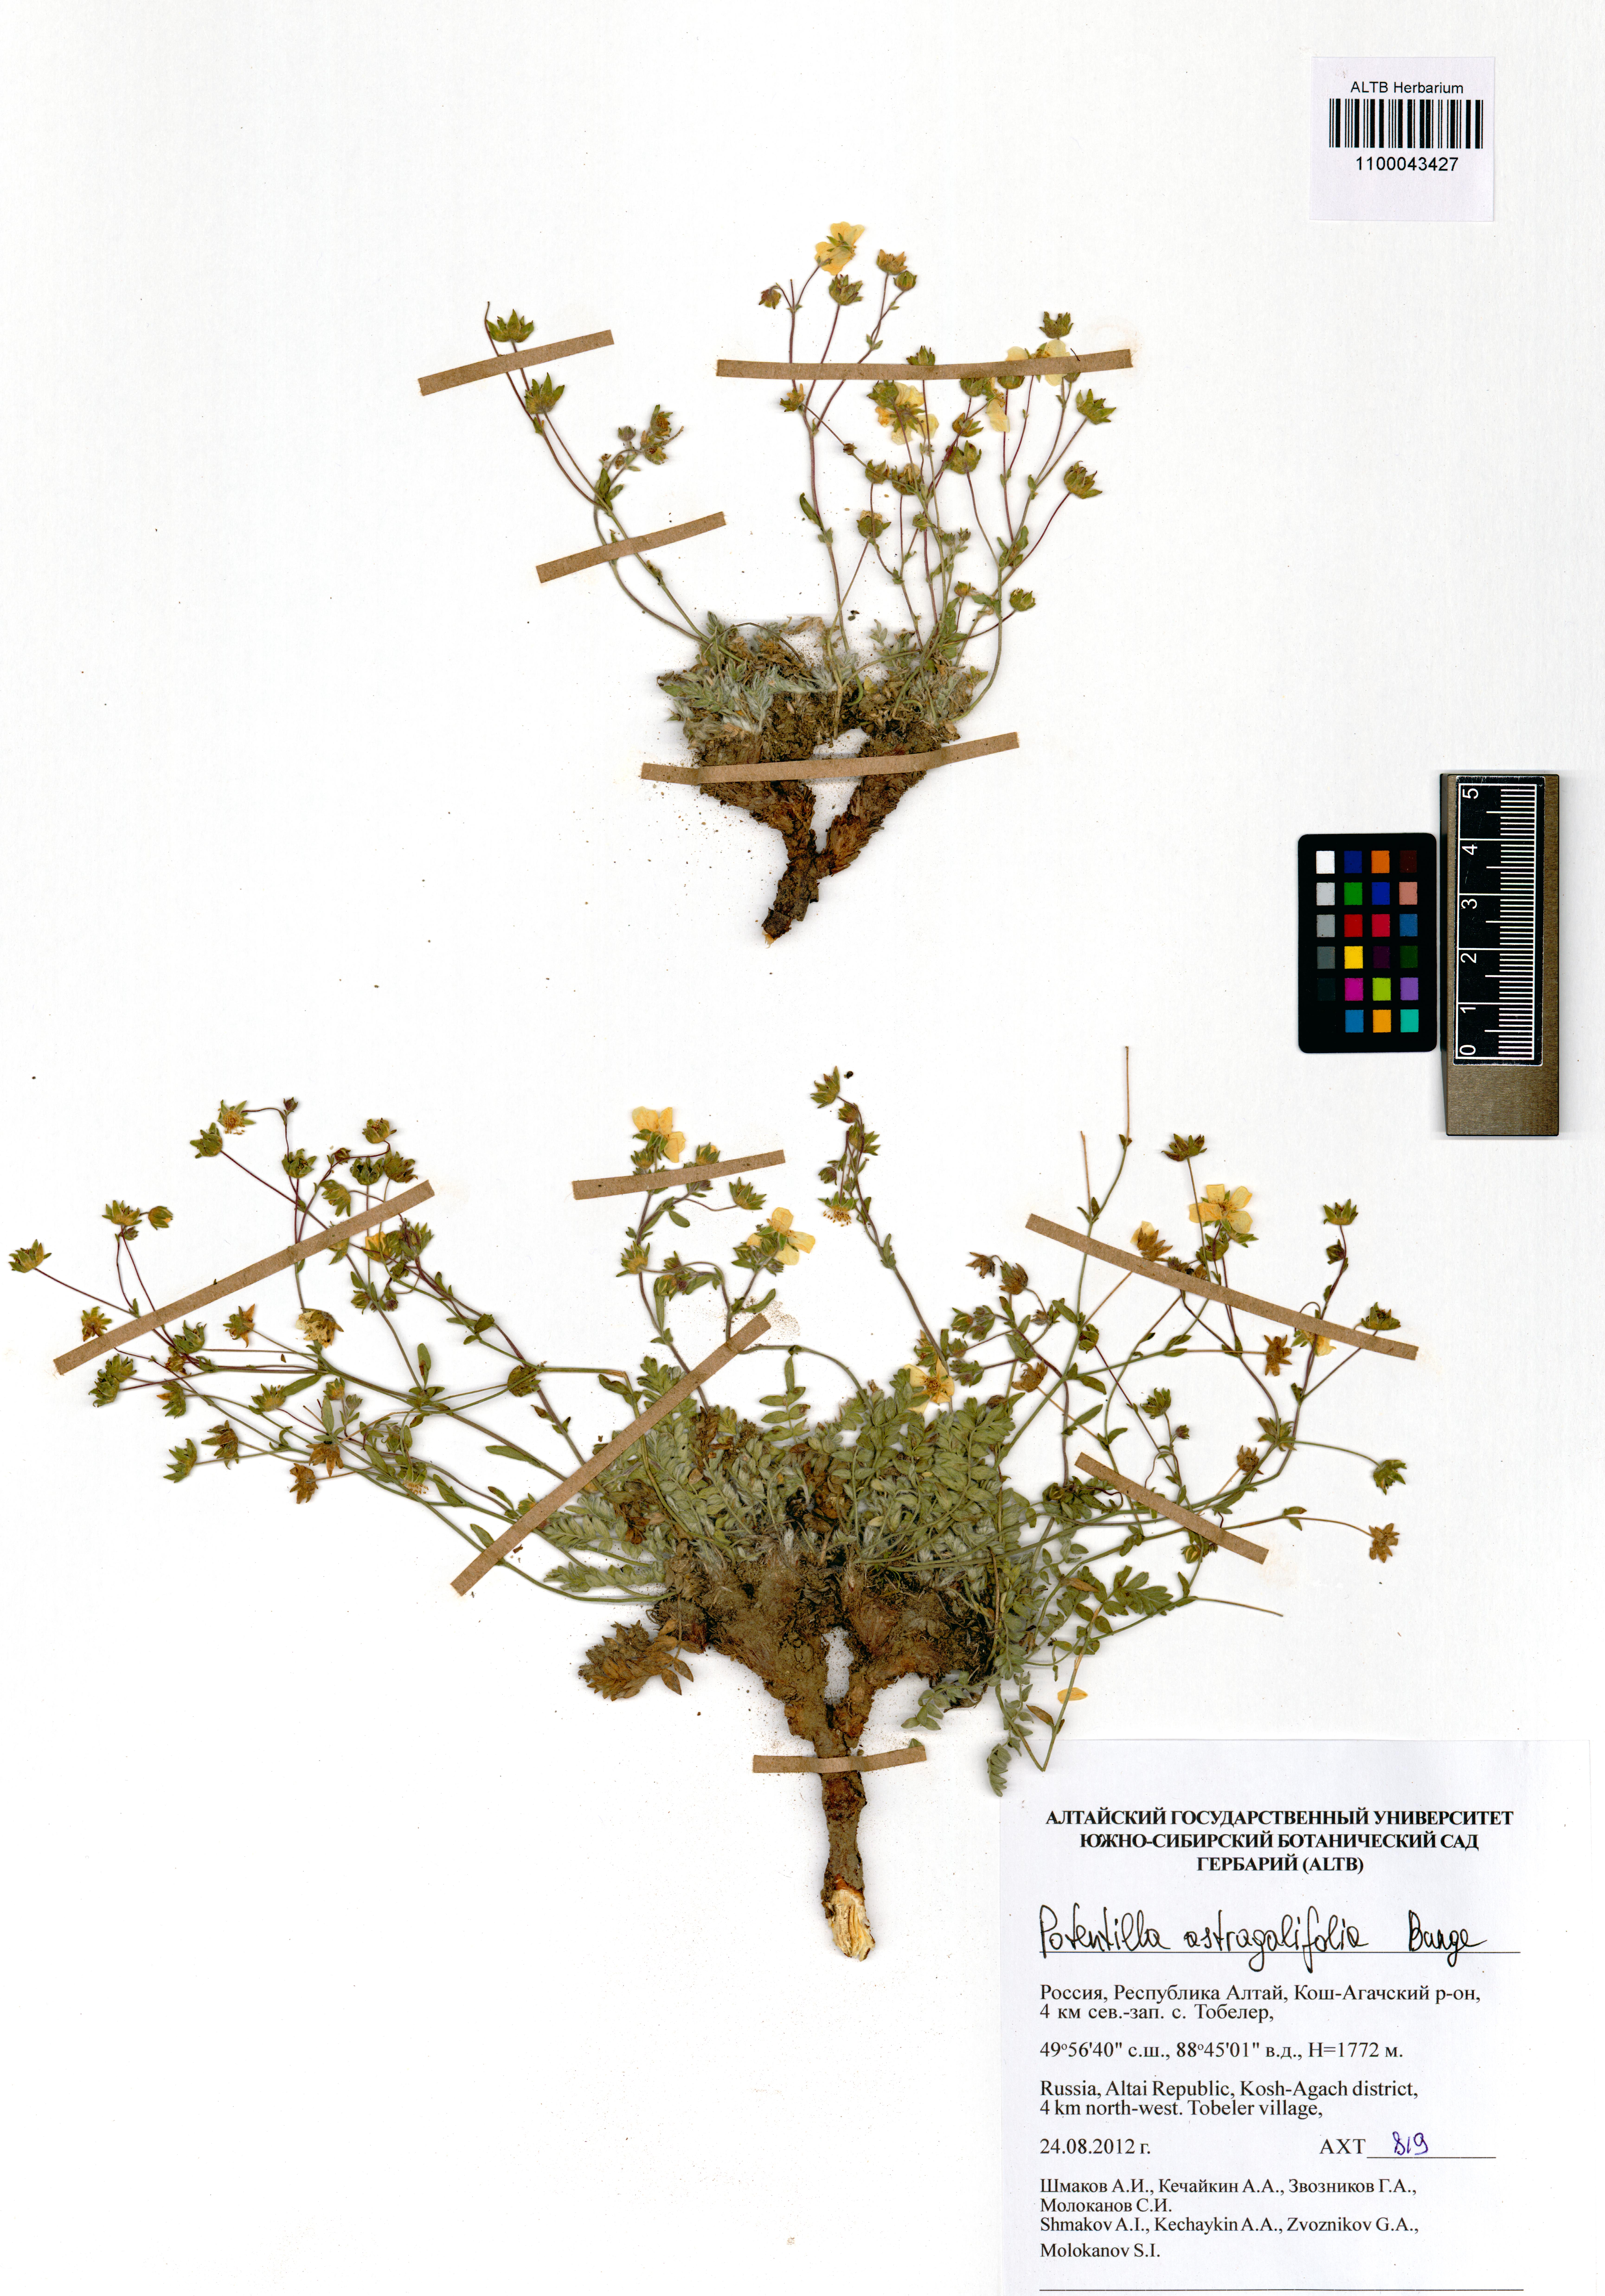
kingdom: Plantae
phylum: Tracheophyta
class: Magnoliopsida
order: Rosales
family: Rosaceae
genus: Potentilla
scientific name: Potentilla astragalifolia
